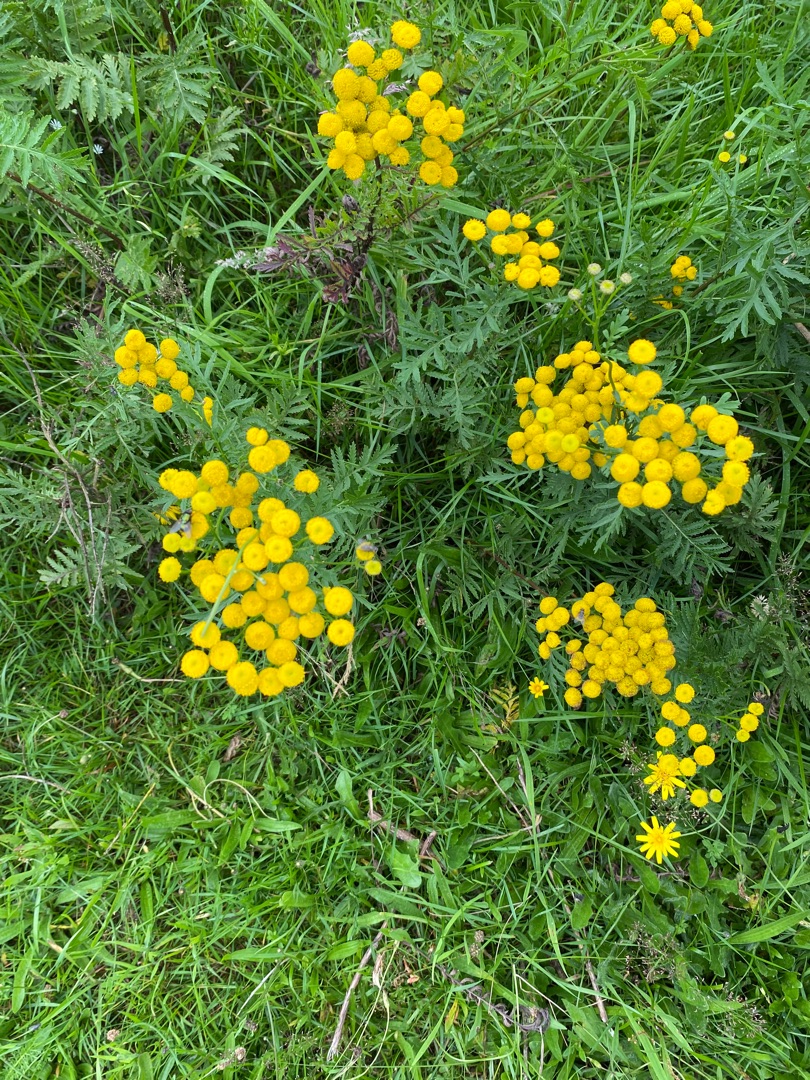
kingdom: Plantae
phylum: Tracheophyta
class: Magnoliopsida
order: Asterales
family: Asteraceae
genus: Tanacetum
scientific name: Tanacetum vulgare
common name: Rejnfan
